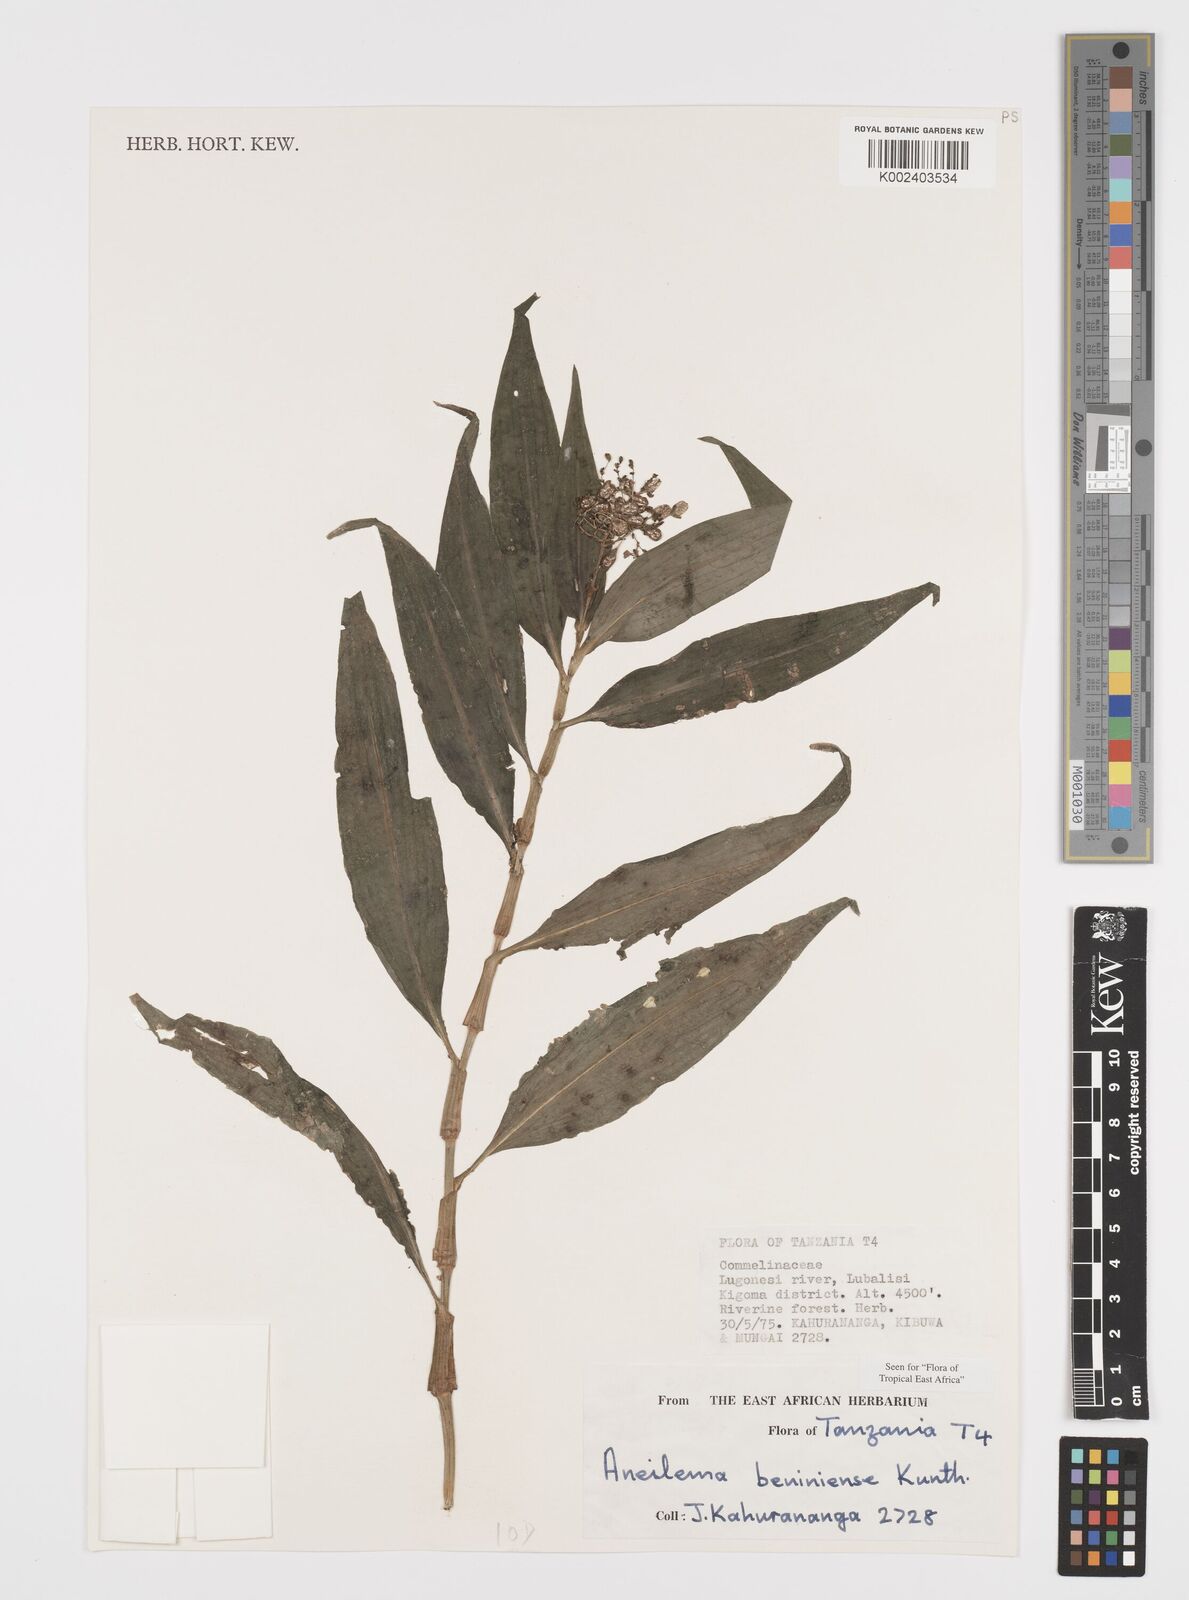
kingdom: Plantae
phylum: Tracheophyta
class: Liliopsida
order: Commelinales
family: Commelinaceae
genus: Aneilema
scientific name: Aneilema beniniense
